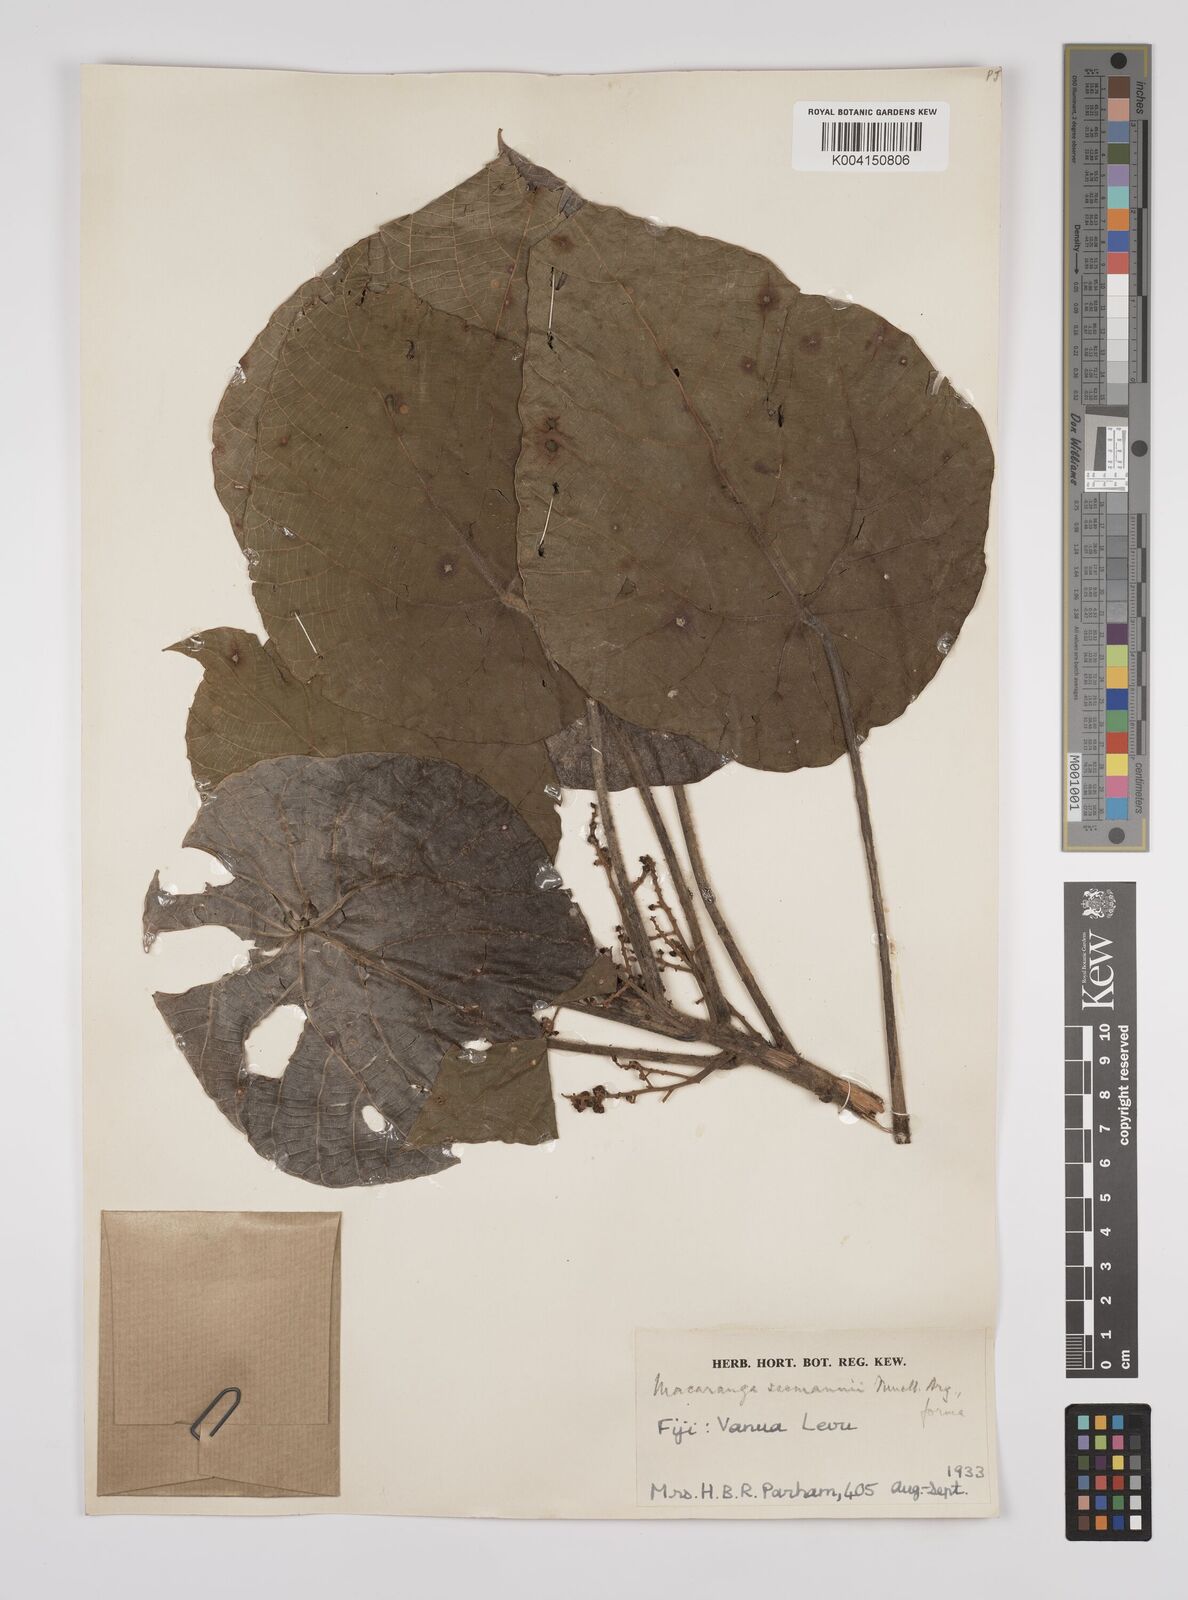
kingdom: Plantae
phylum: Tracheophyta
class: Magnoliopsida
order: Malpighiales
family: Euphorbiaceae
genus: Macaranga
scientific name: Macaranga seemannii
